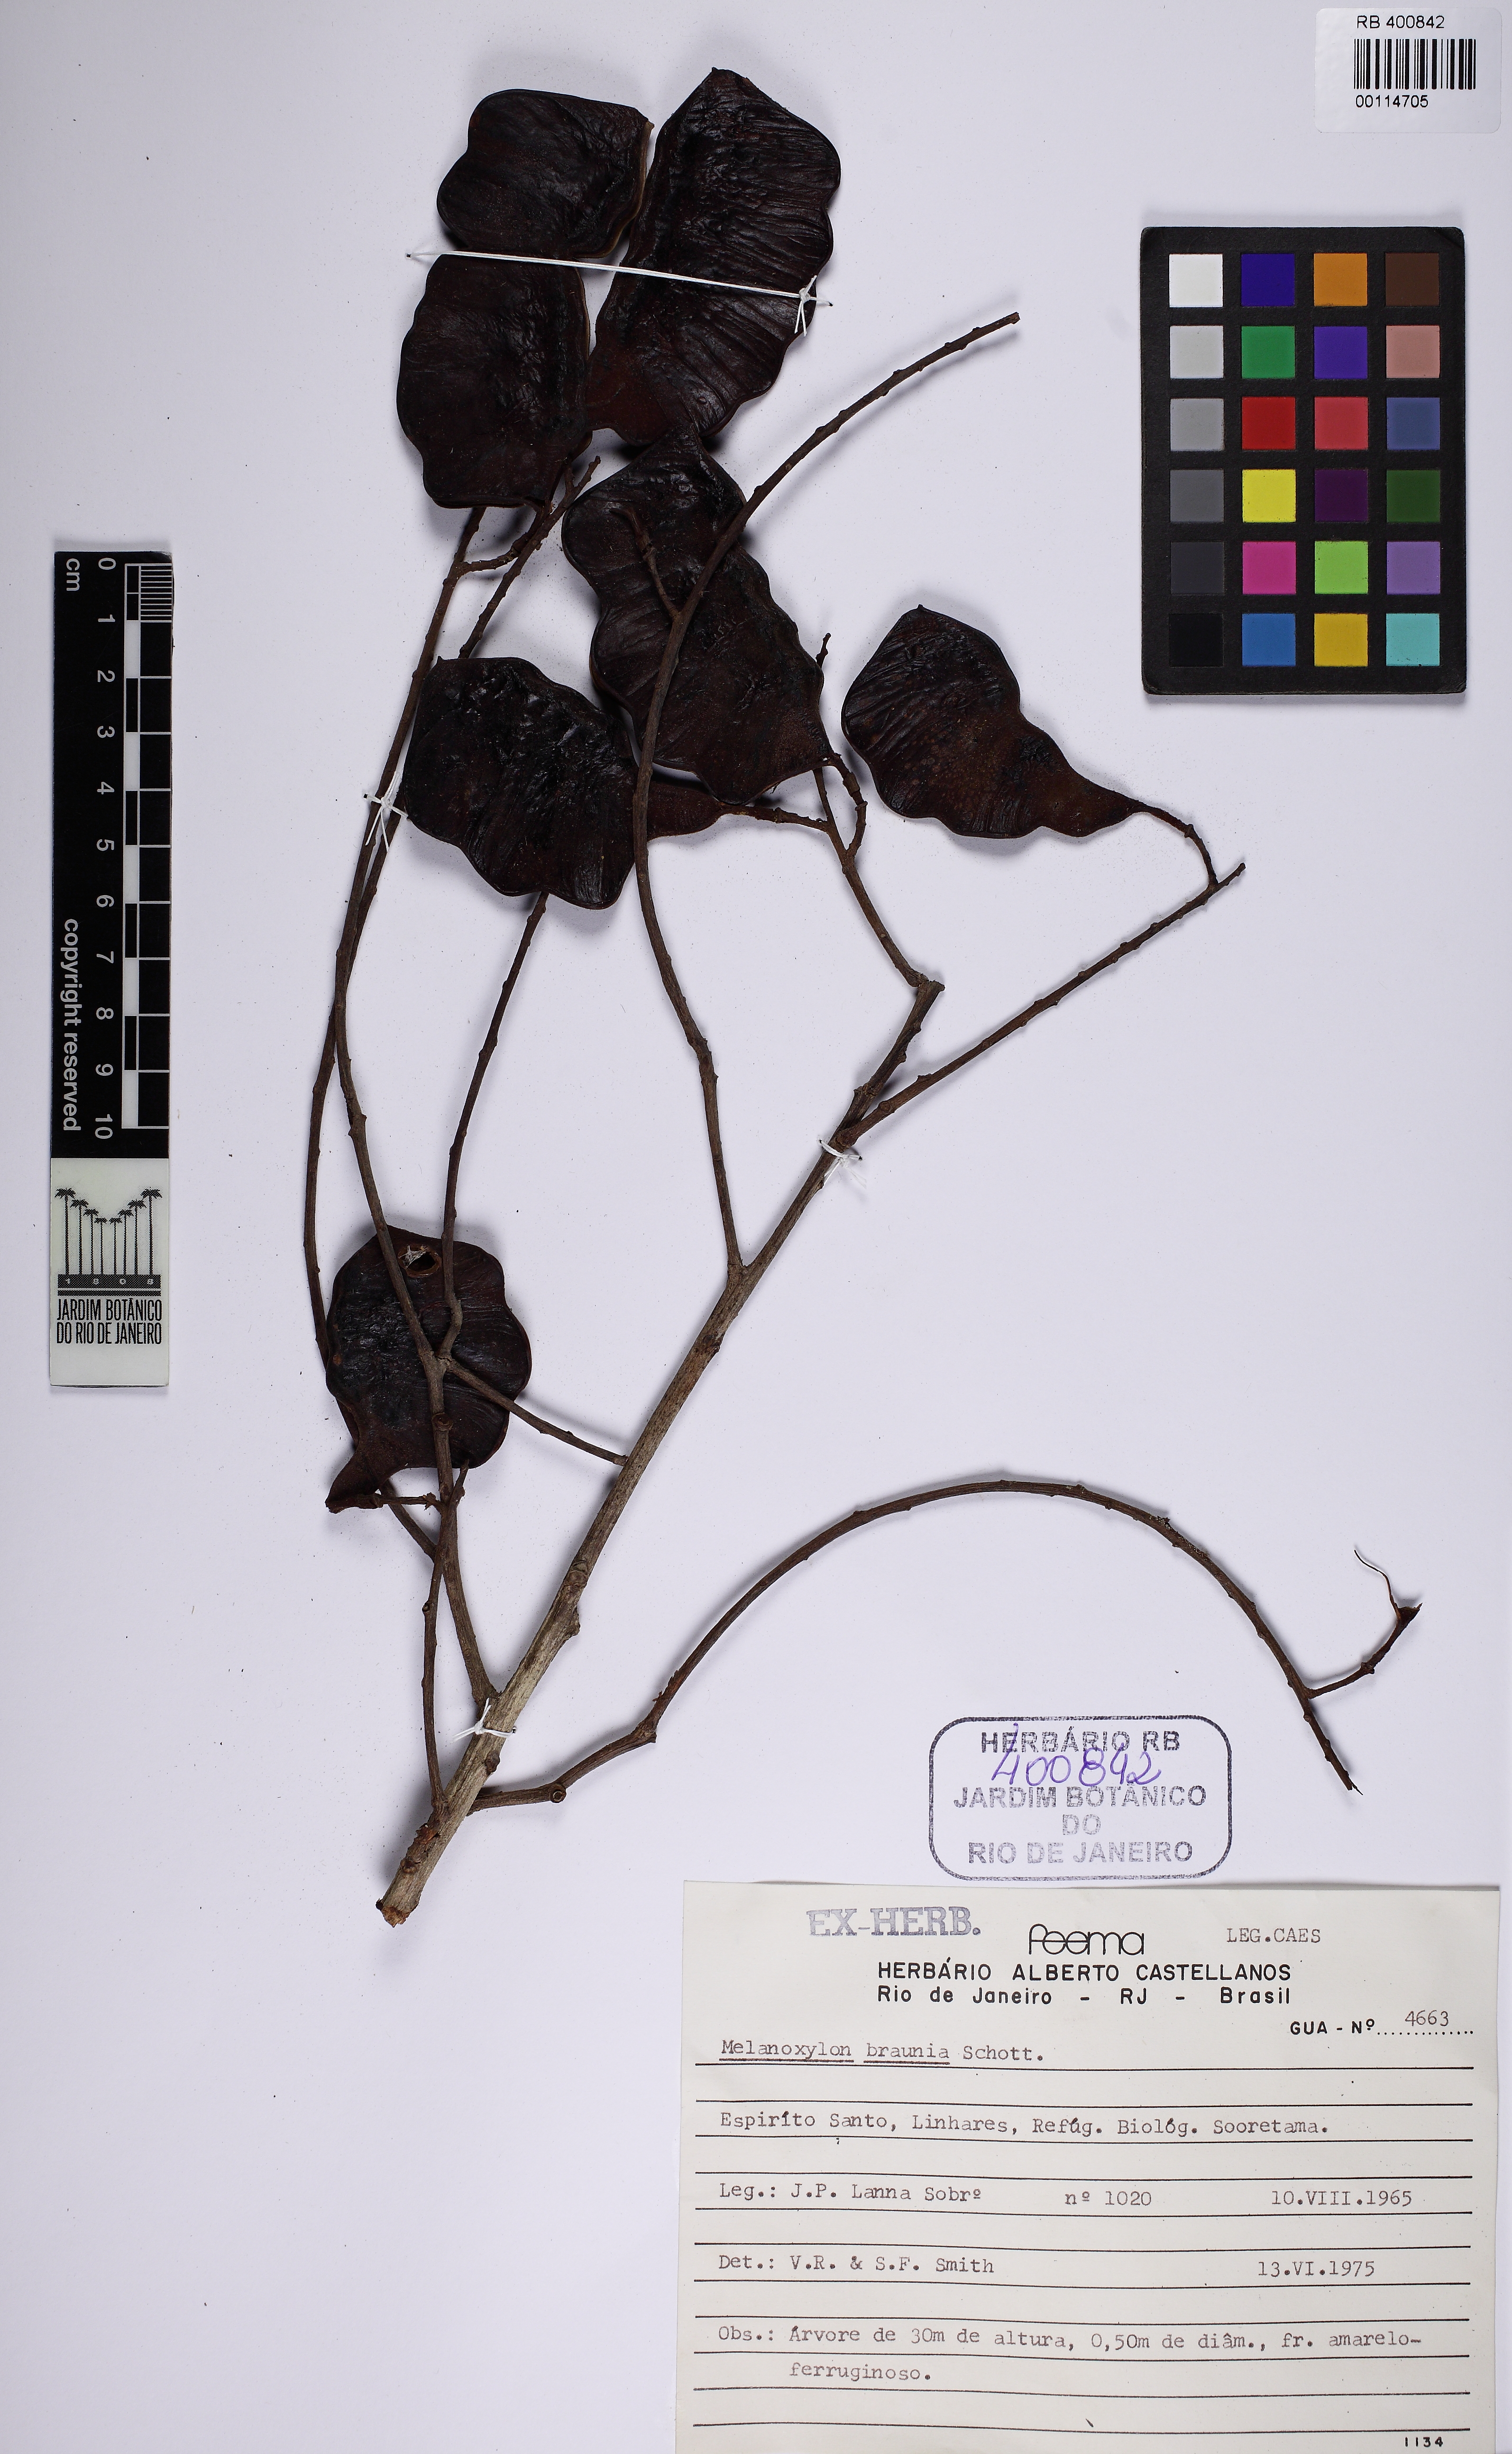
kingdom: Plantae
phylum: Tracheophyta
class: Magnoliopsida
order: Fabales
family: Fabaceae
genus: Melanoxylon
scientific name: Melanoxylon brauna
